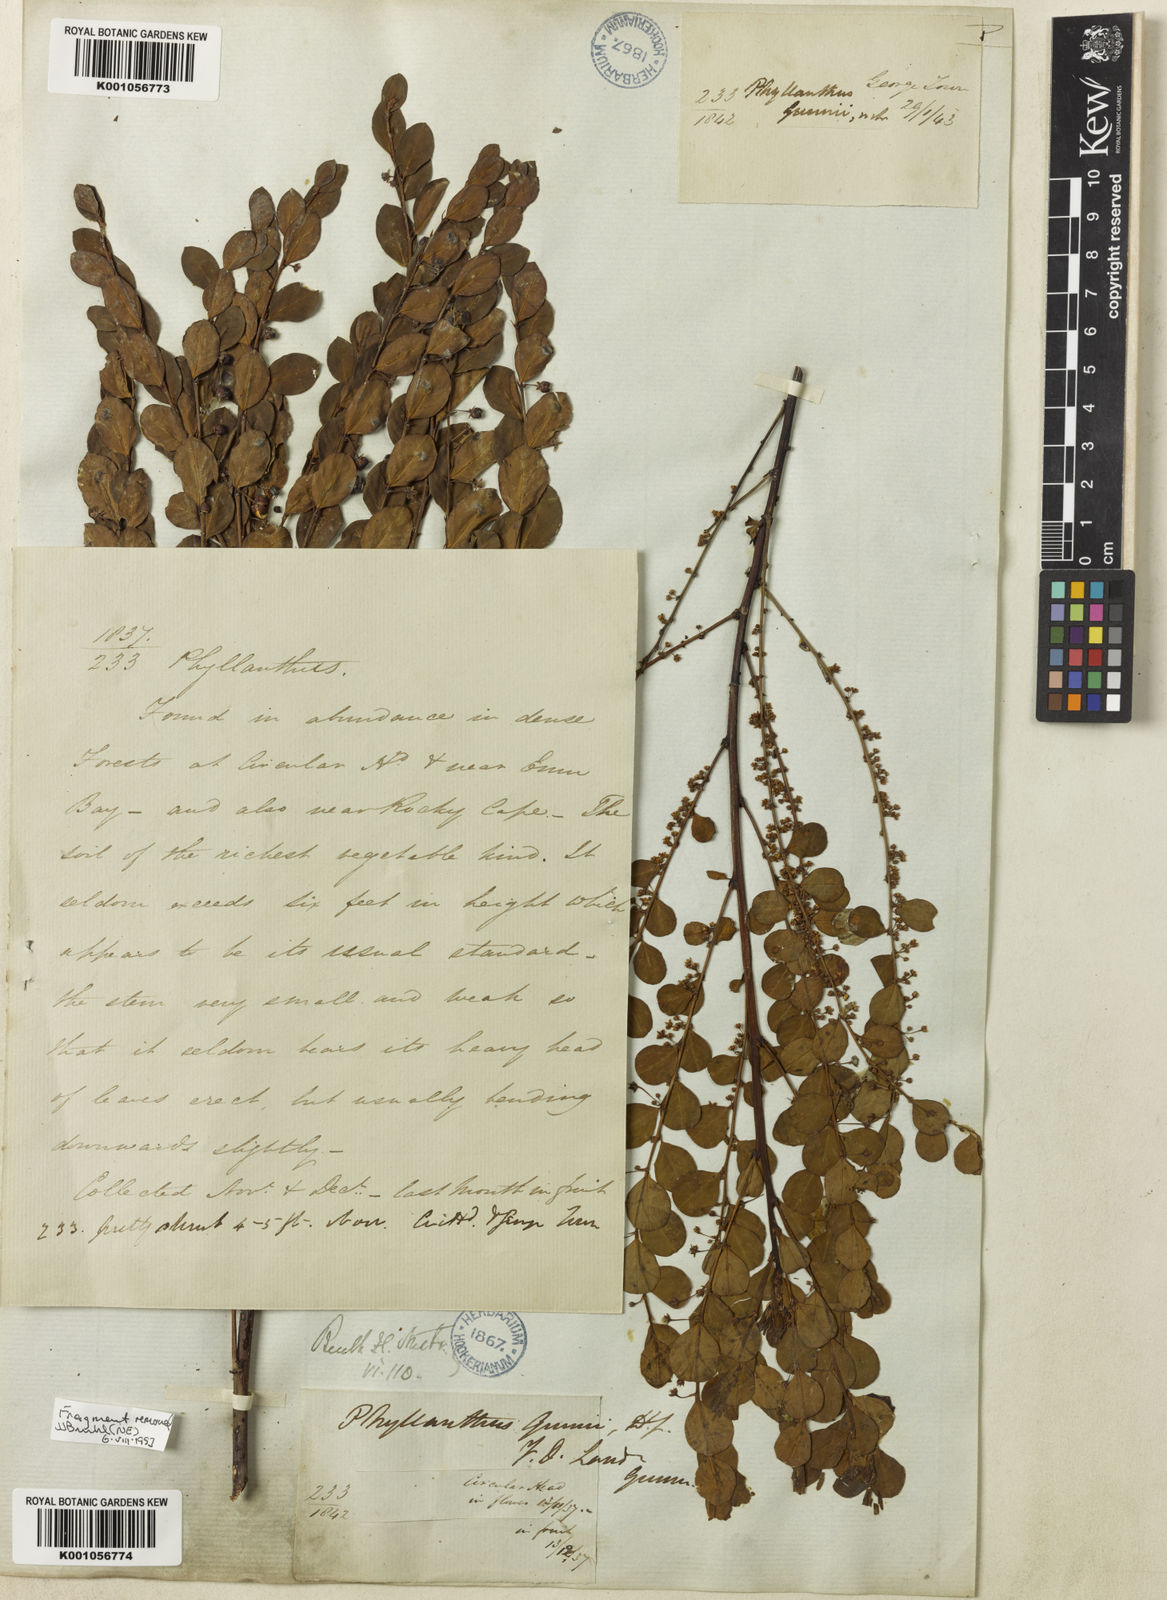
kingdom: Plantae
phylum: Tracheophyta
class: Magnoliopsida
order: Malpighiales
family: Phyllanthaceae
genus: Phyllanthus
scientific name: Phyllanthus gunnii
